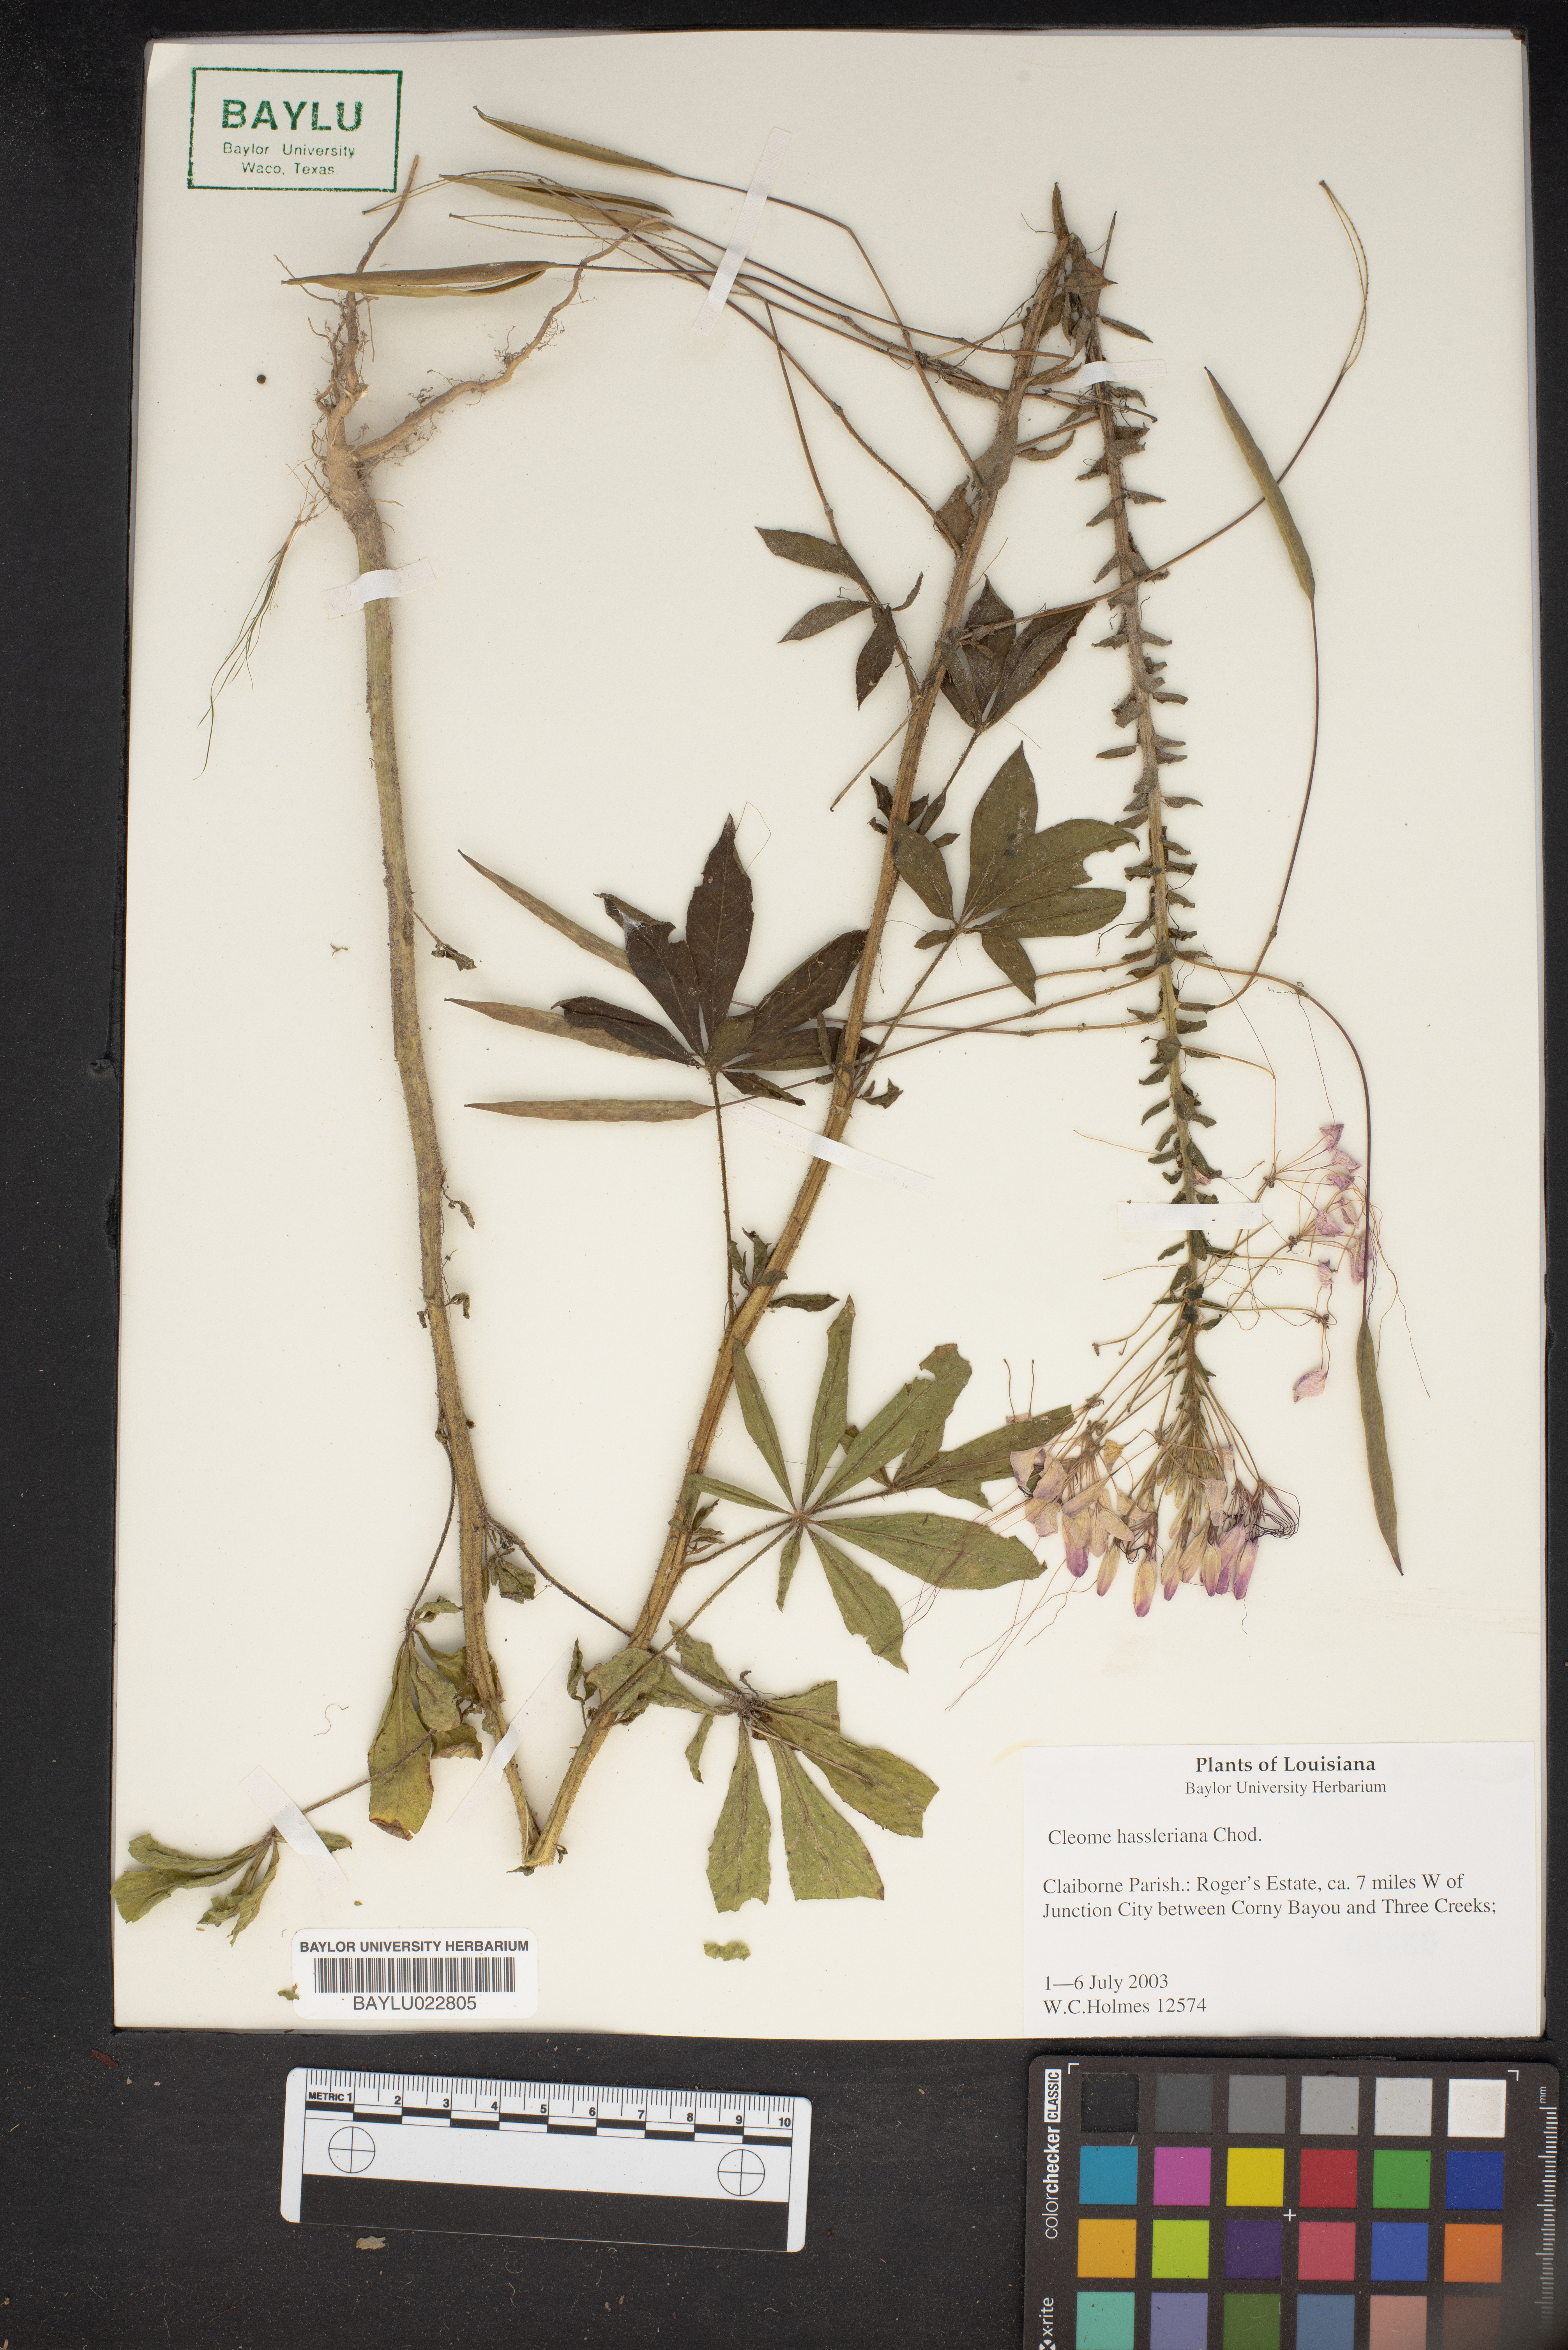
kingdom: Plantae
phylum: Tracheophyta
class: Magnoliopsida
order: Brassicales
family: Cleomaceae
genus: Tarenaya
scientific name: Tarenaya houtteana
